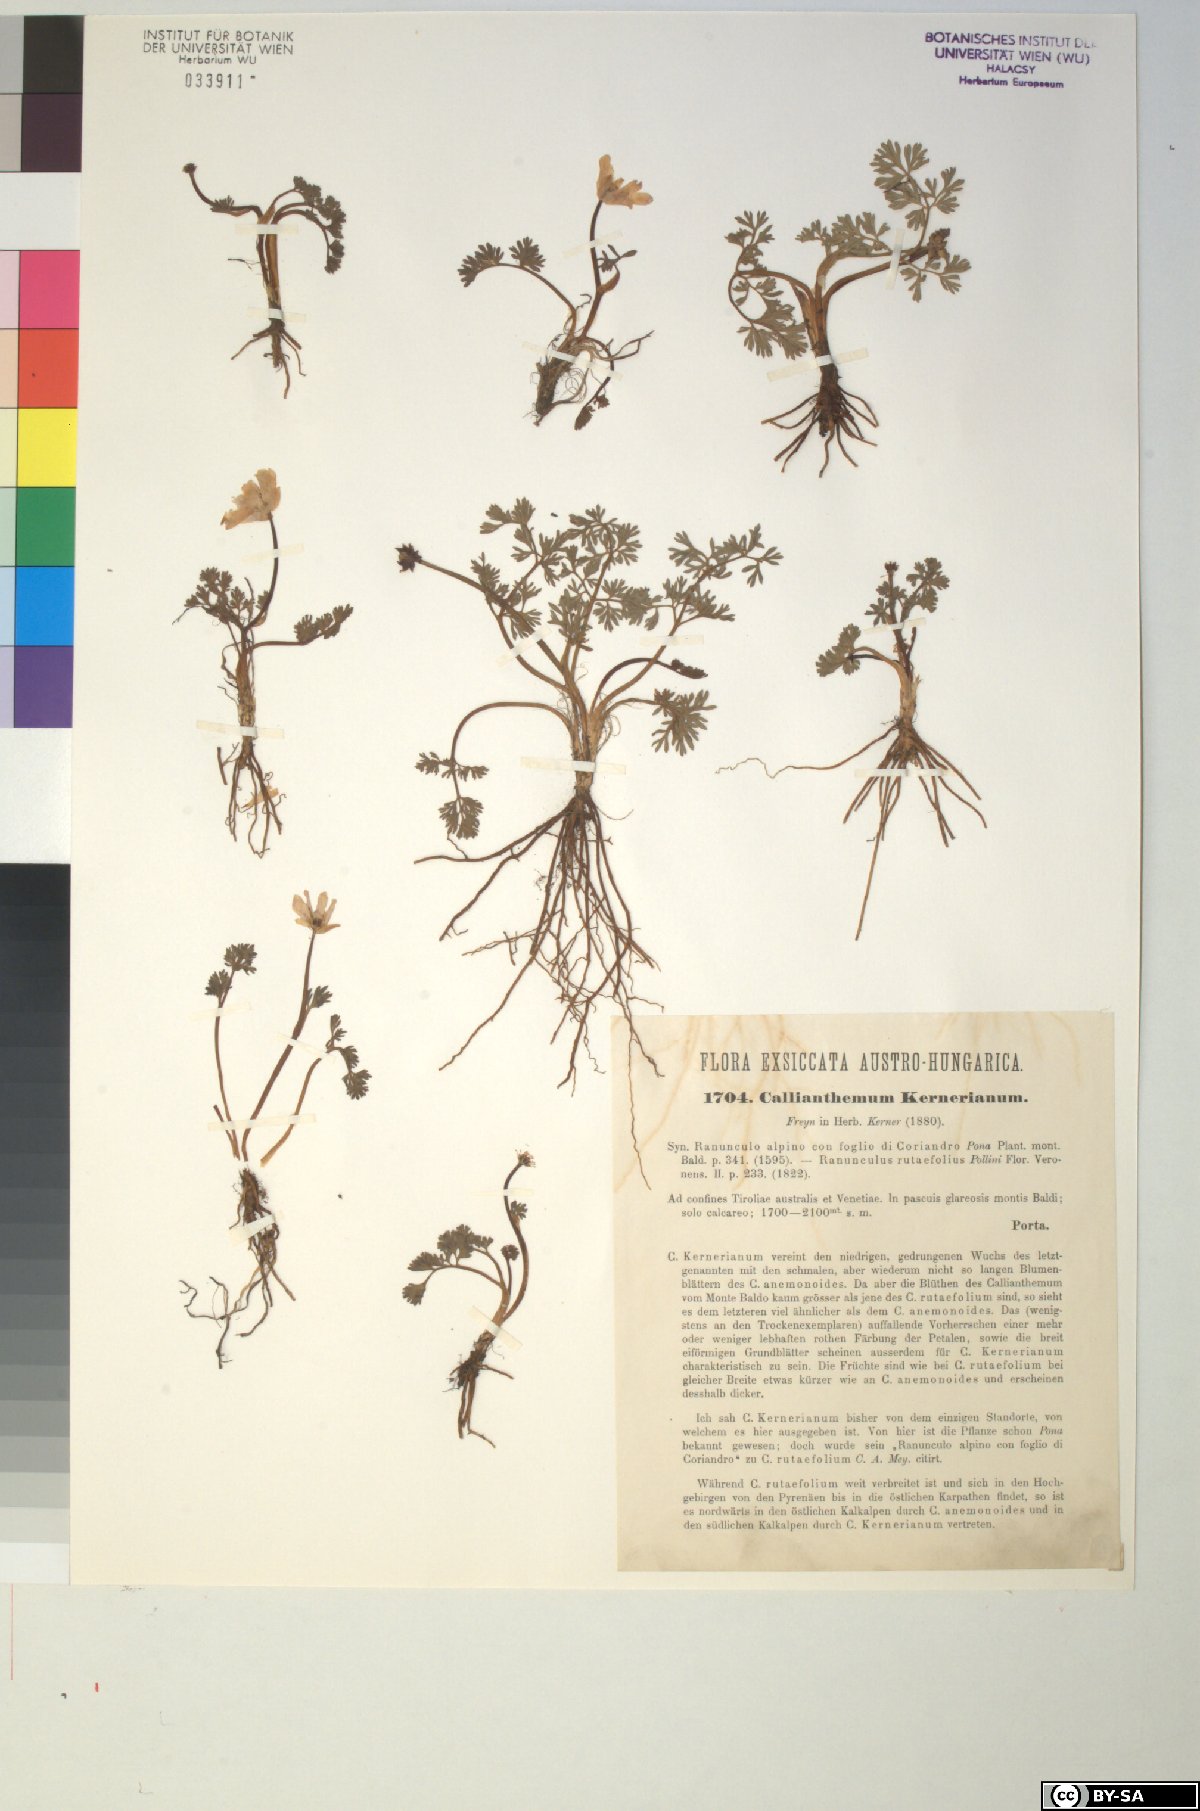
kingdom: Plantae
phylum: Tracheophyta
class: Magnoliopsida
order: Ranunculales
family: Ranunculaceae
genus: Callianthemum
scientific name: Callianthemum kernerianum
